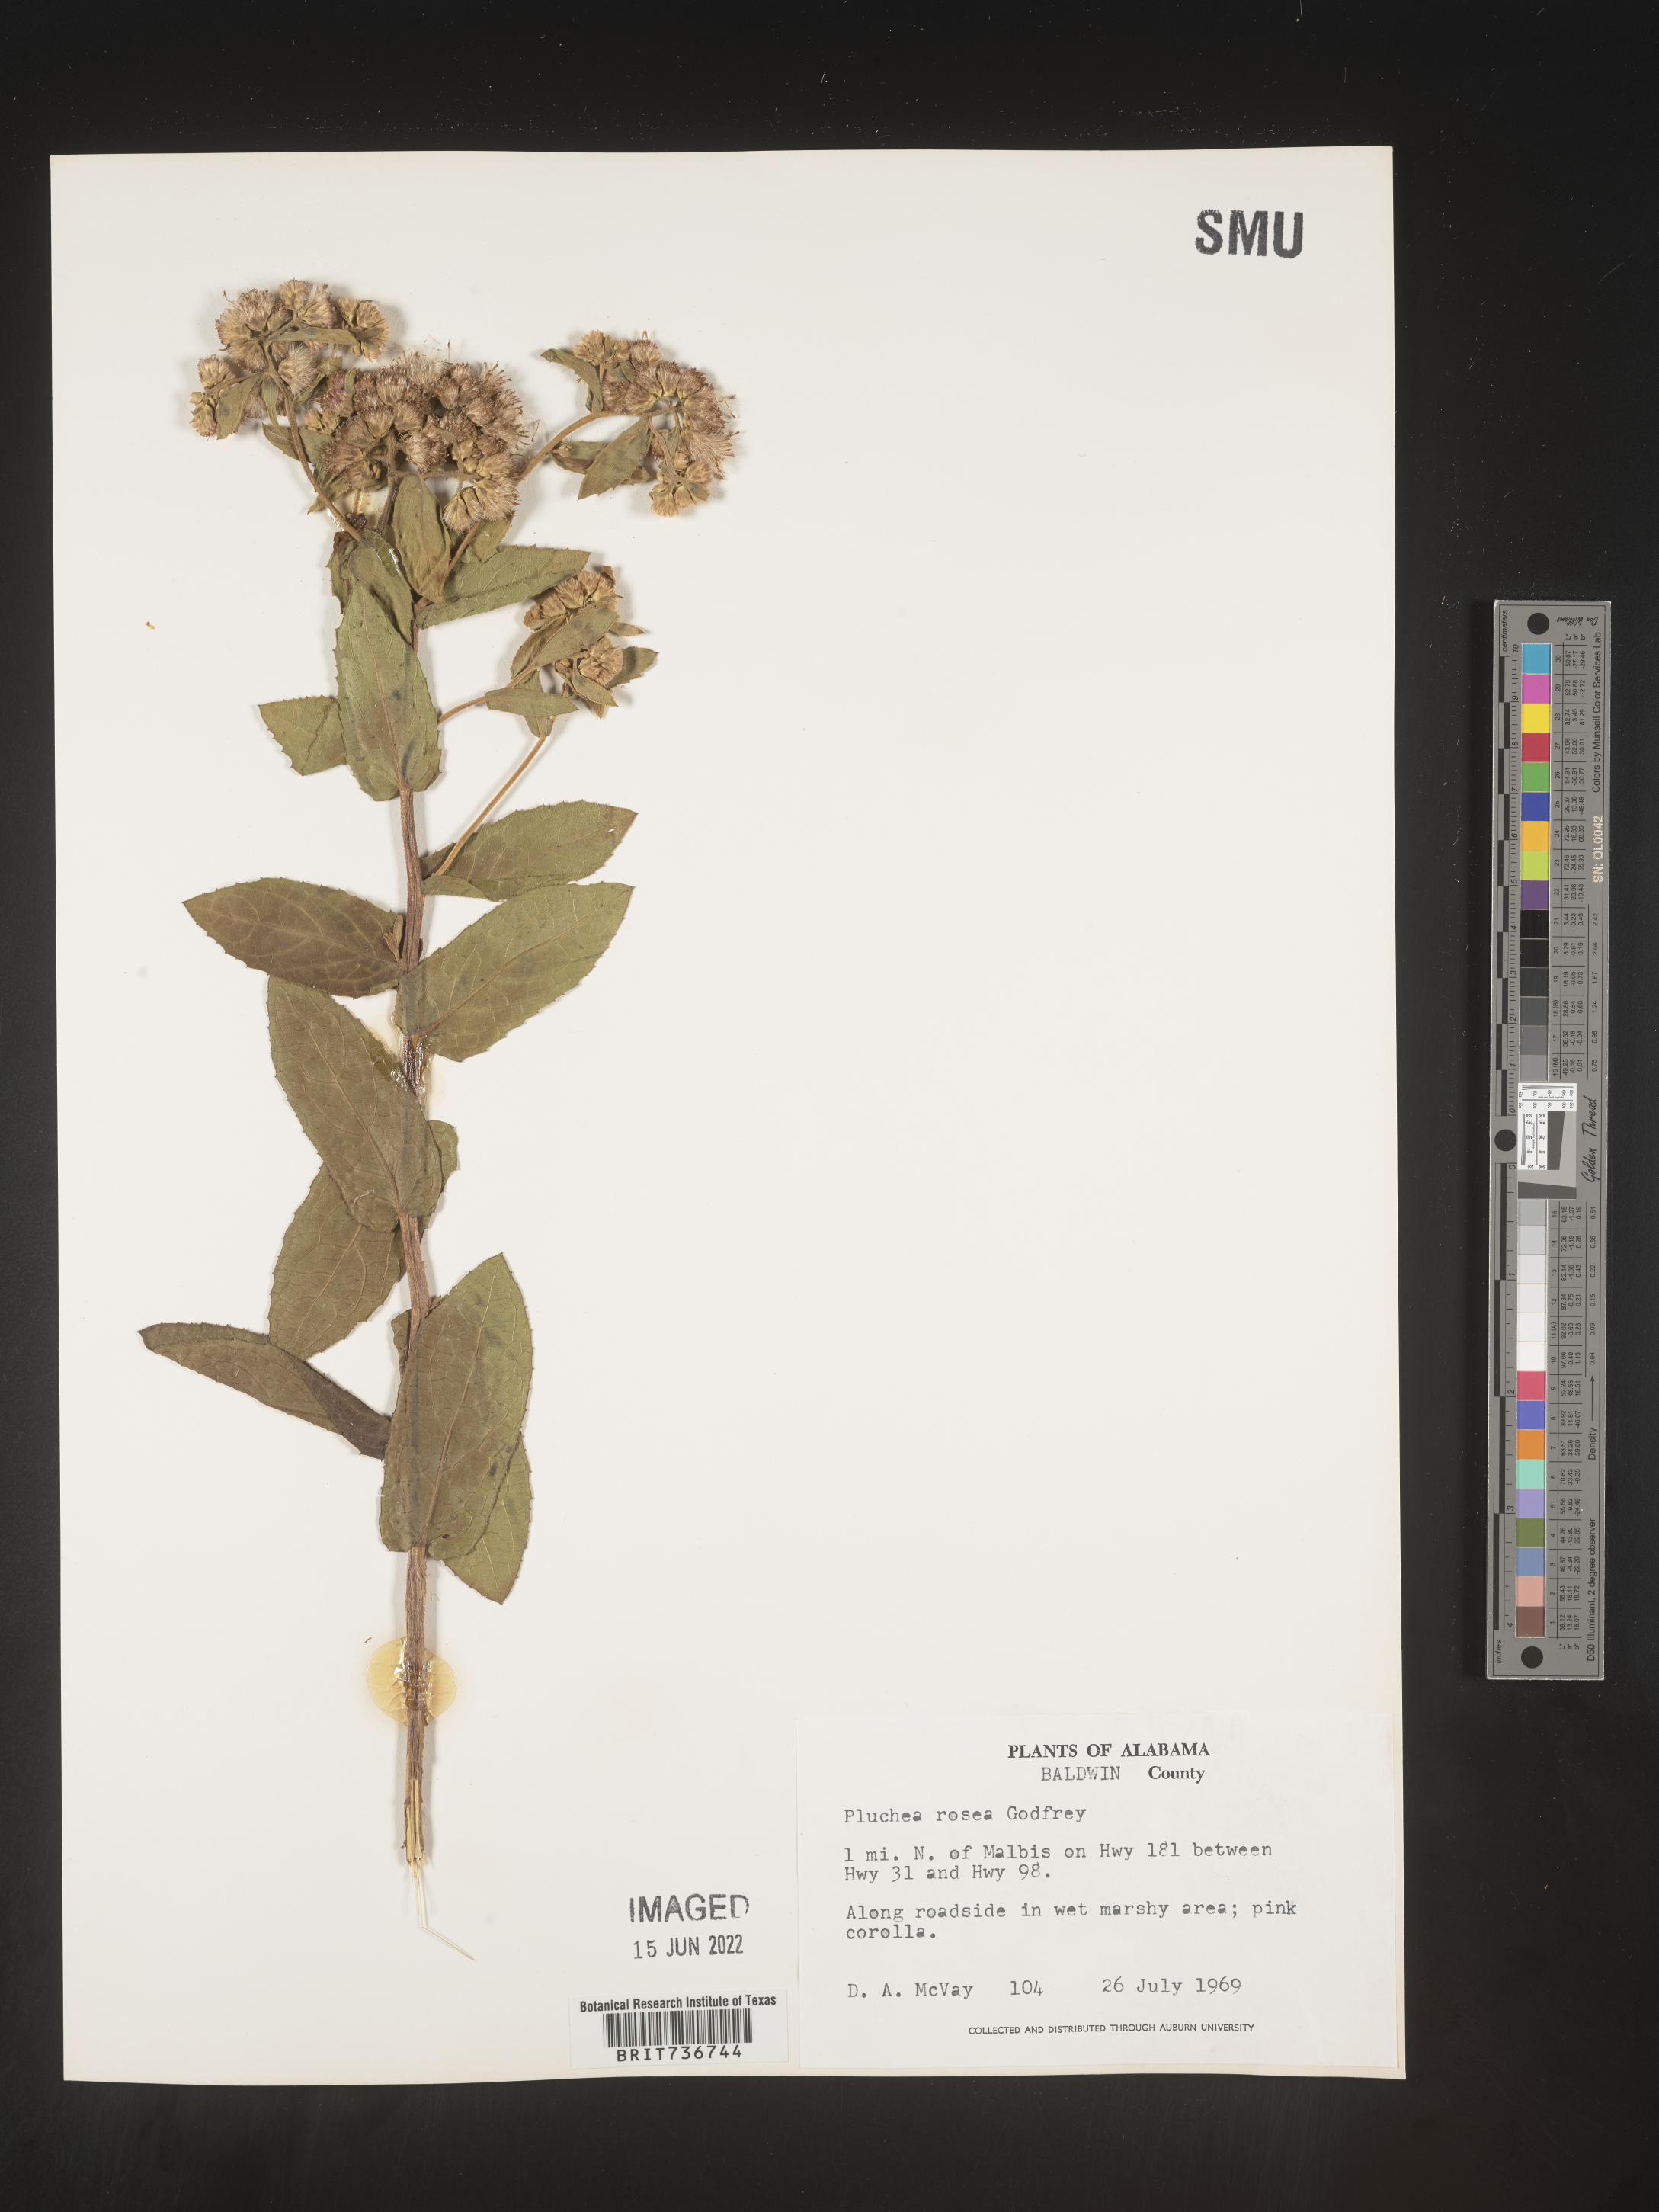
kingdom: Plantae
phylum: Tracheophyta
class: Magnoliopsida
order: Asterales
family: Asteraceae
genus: Pluchea
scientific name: Pluchea baccharis
